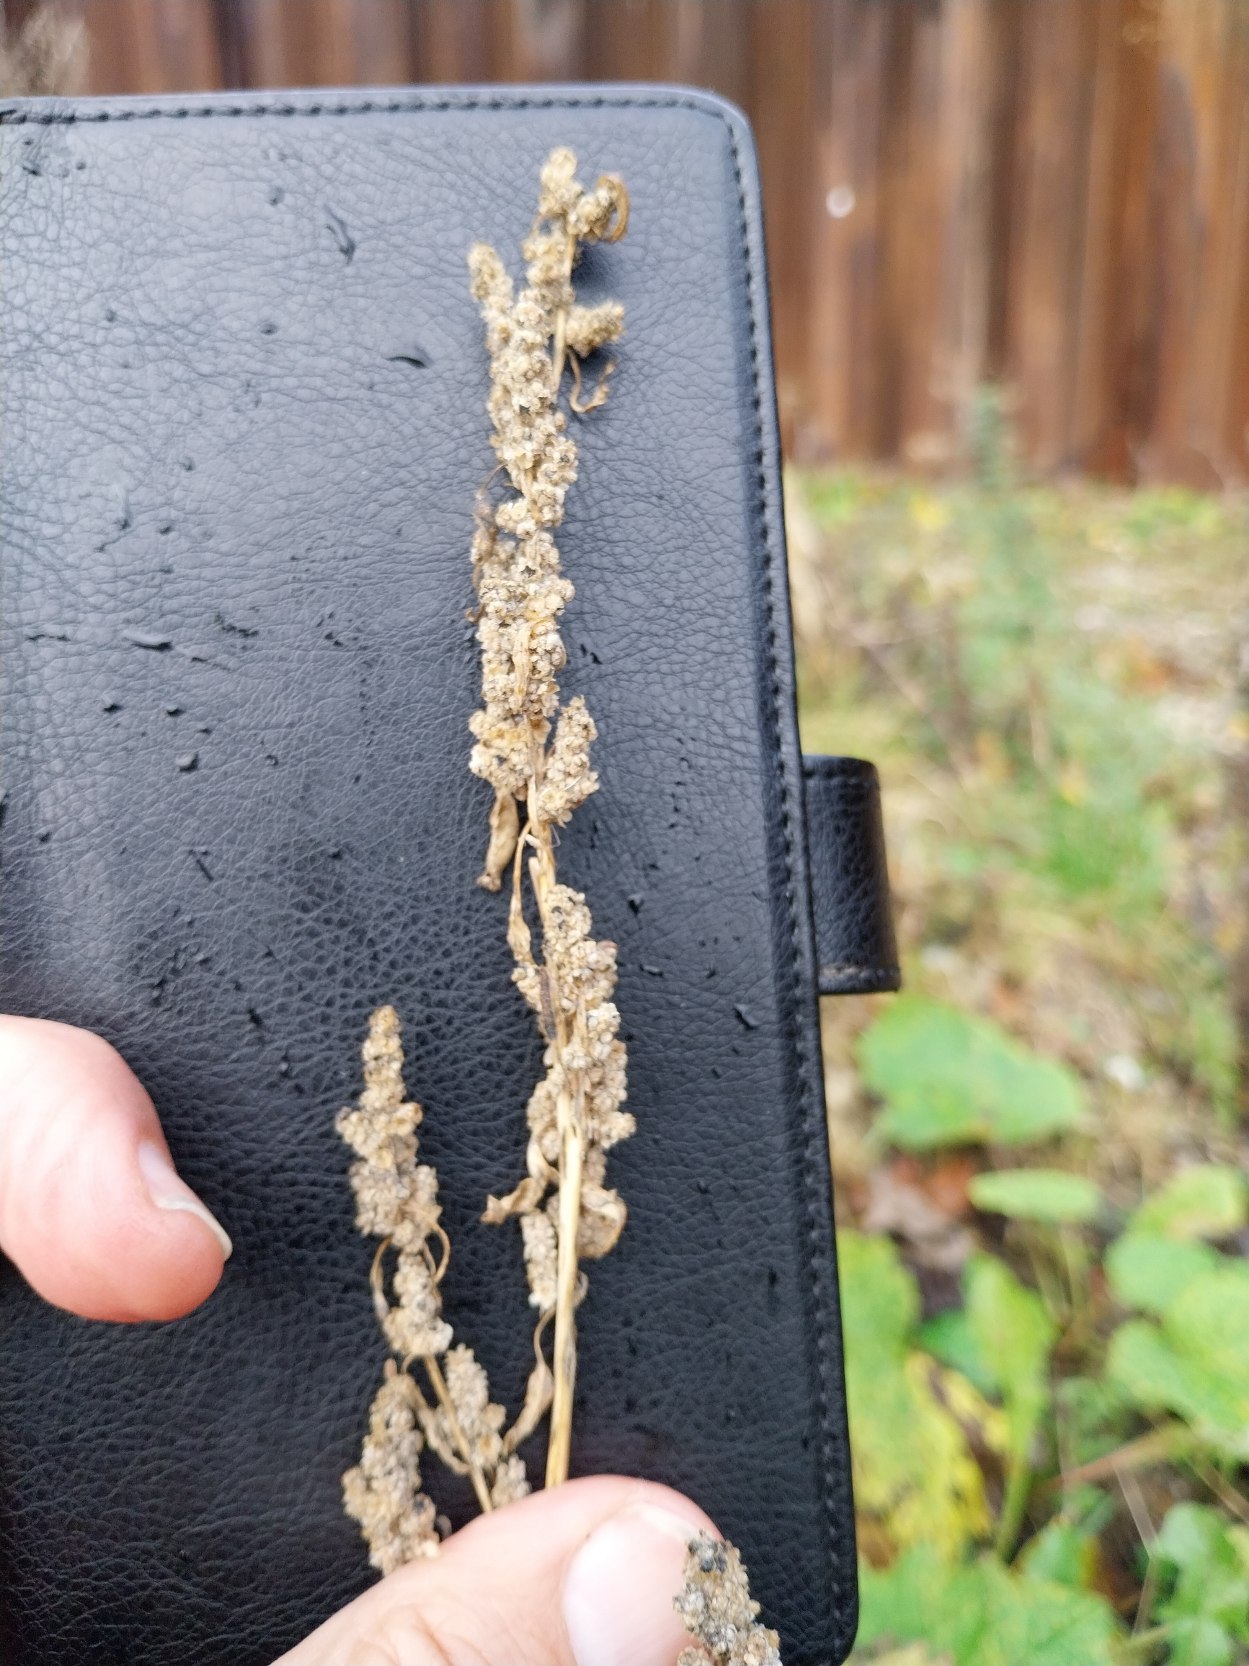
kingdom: Plantae
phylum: Tracheophyta
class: Magnoliopsida
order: Caryophyllales
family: Amaranthaceae
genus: Chenopodium
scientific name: Chenopodium album
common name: Hvidmelet gåsefod
